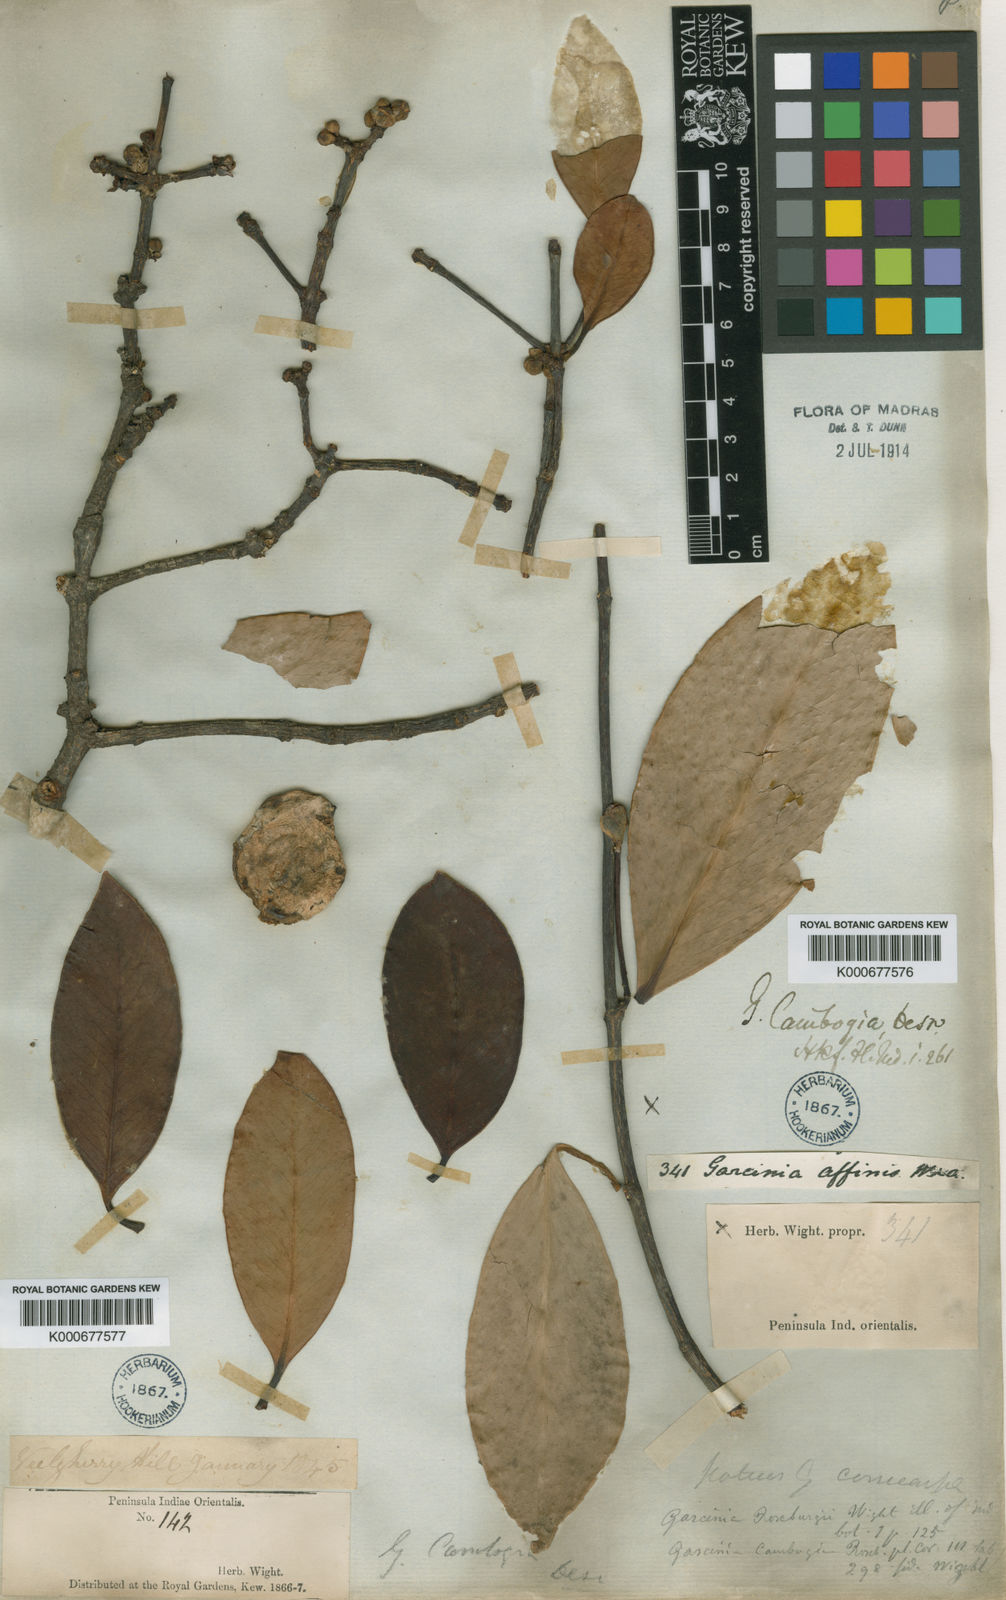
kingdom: Plantae
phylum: Tracheophyta
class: Magnoliopsida
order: Malpighiales
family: Clusiaceae
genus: Garcinia
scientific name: Garcinia gummi-gutta
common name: Malabar tamarind
